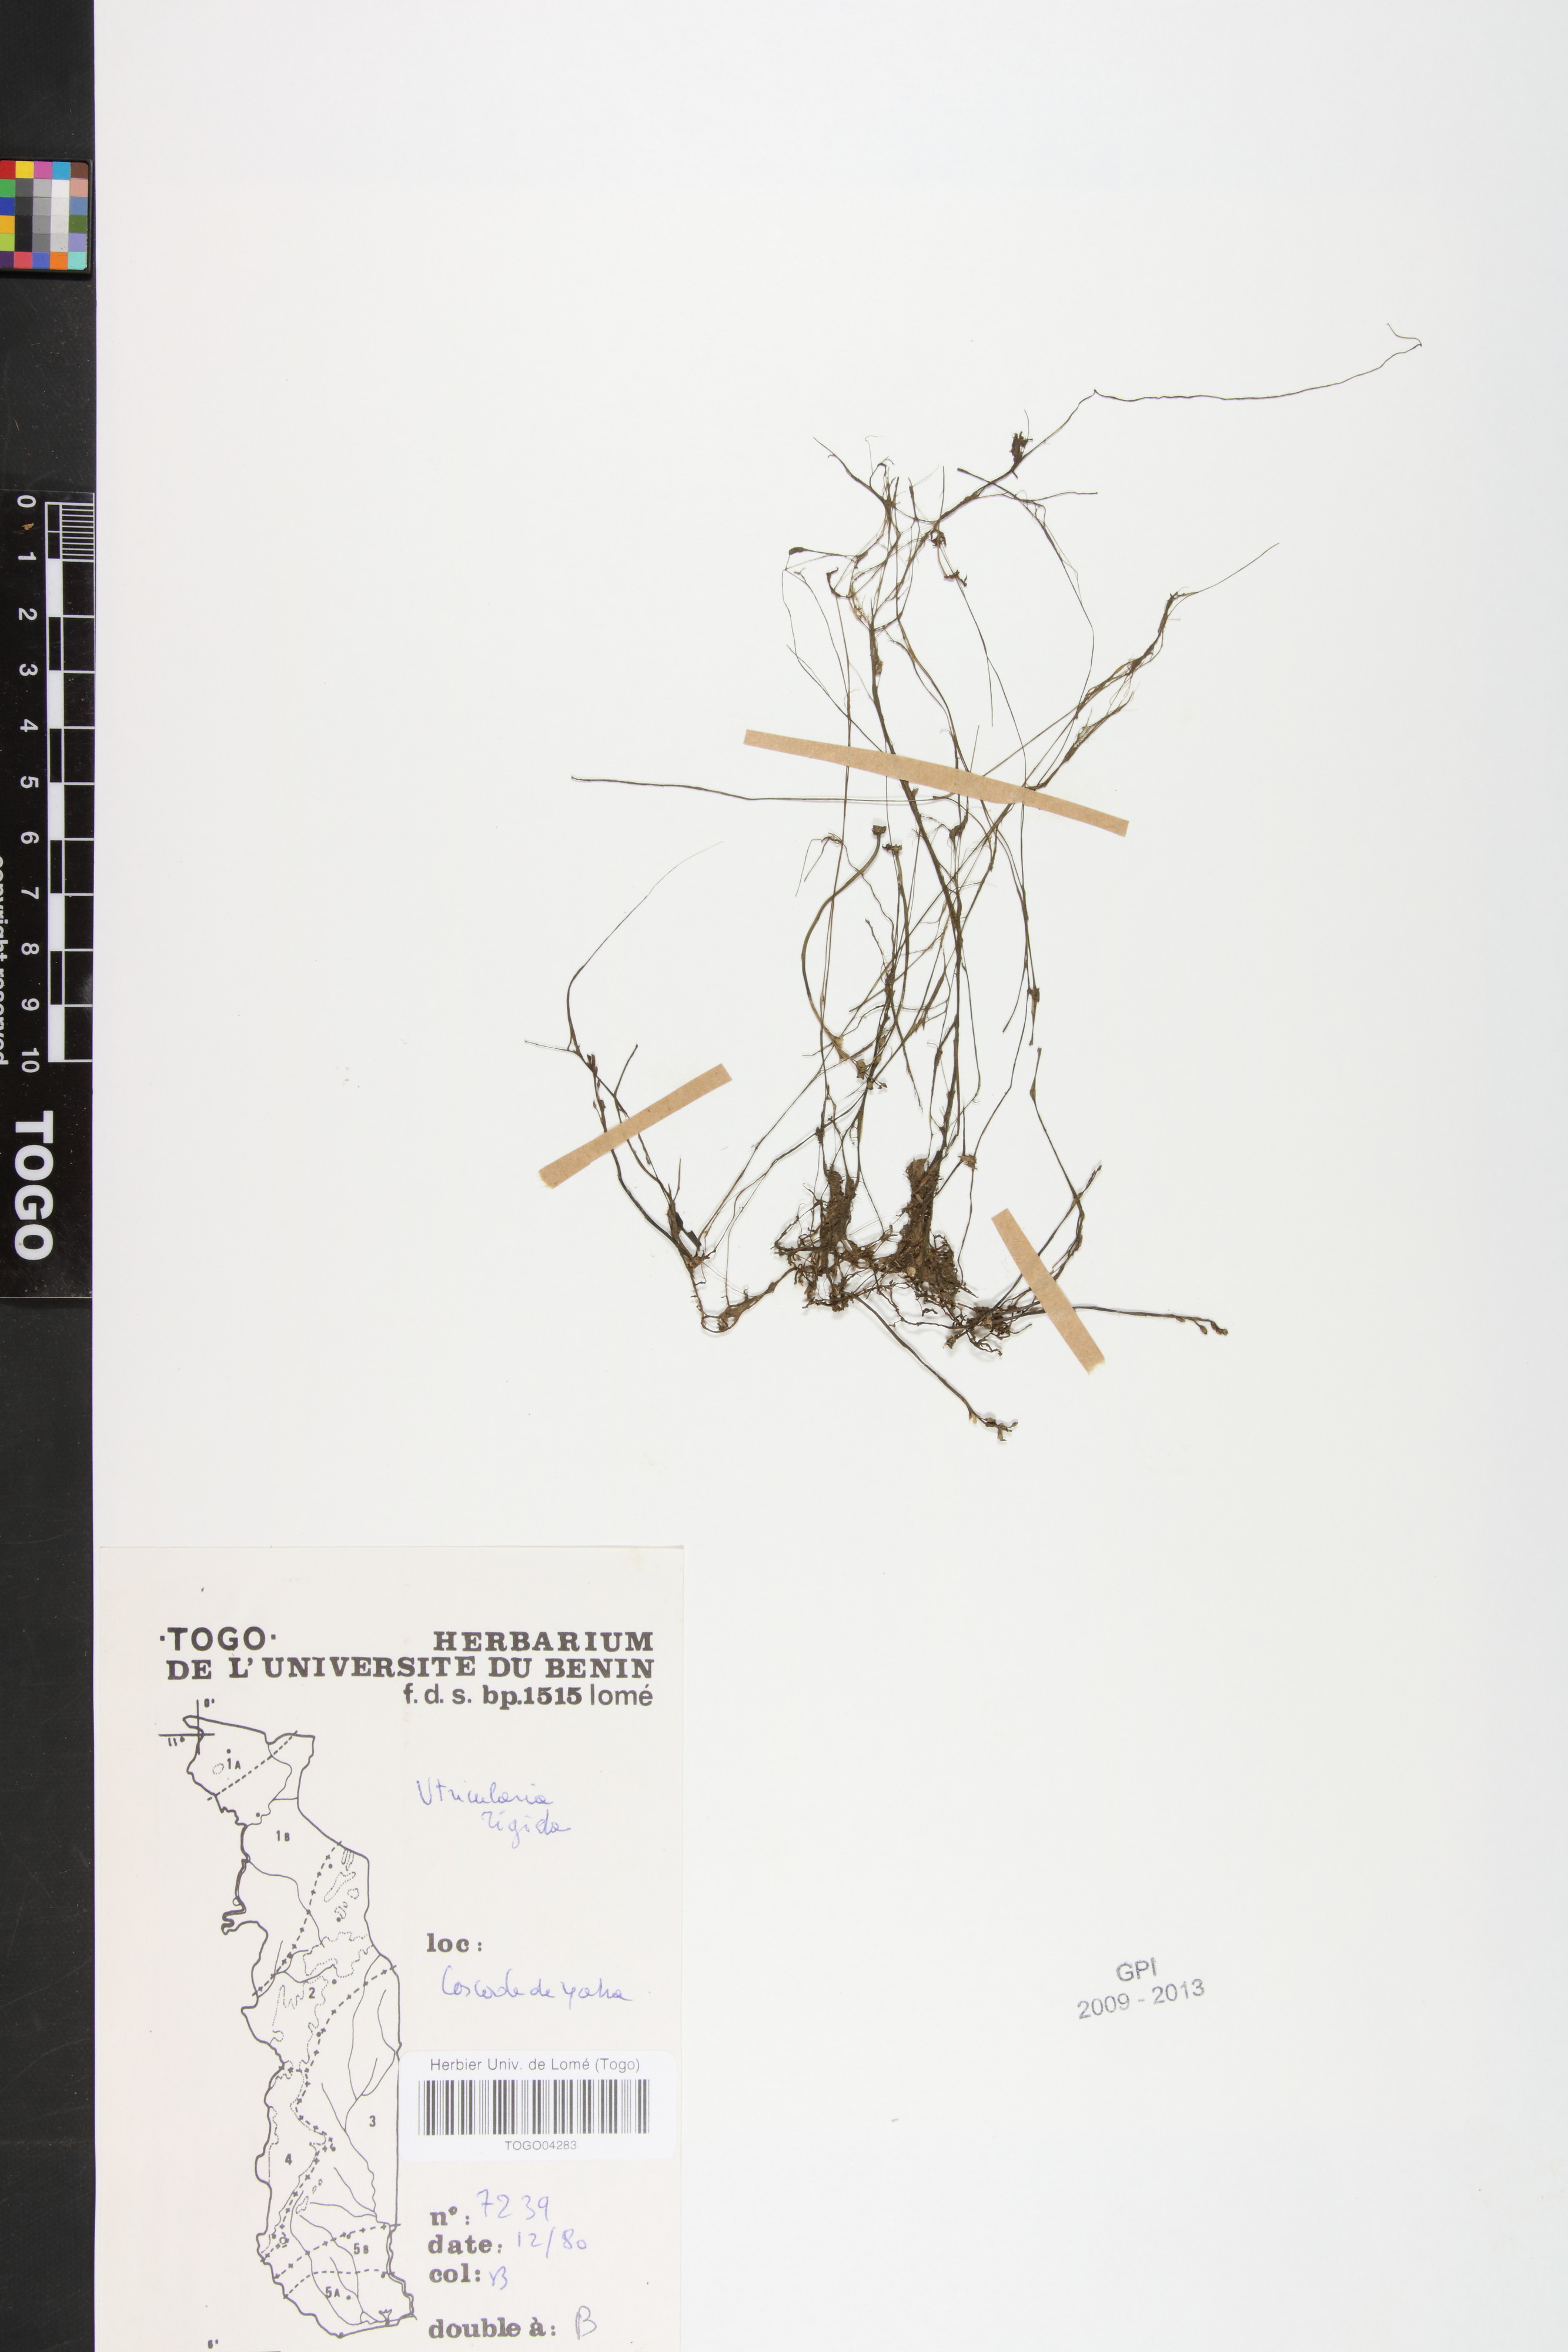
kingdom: Plantae
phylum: Tracheophyta
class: Magnoliopsida
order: Lamiales
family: Lentibulariaceae
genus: Utricularia
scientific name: Utricularia reflexa
